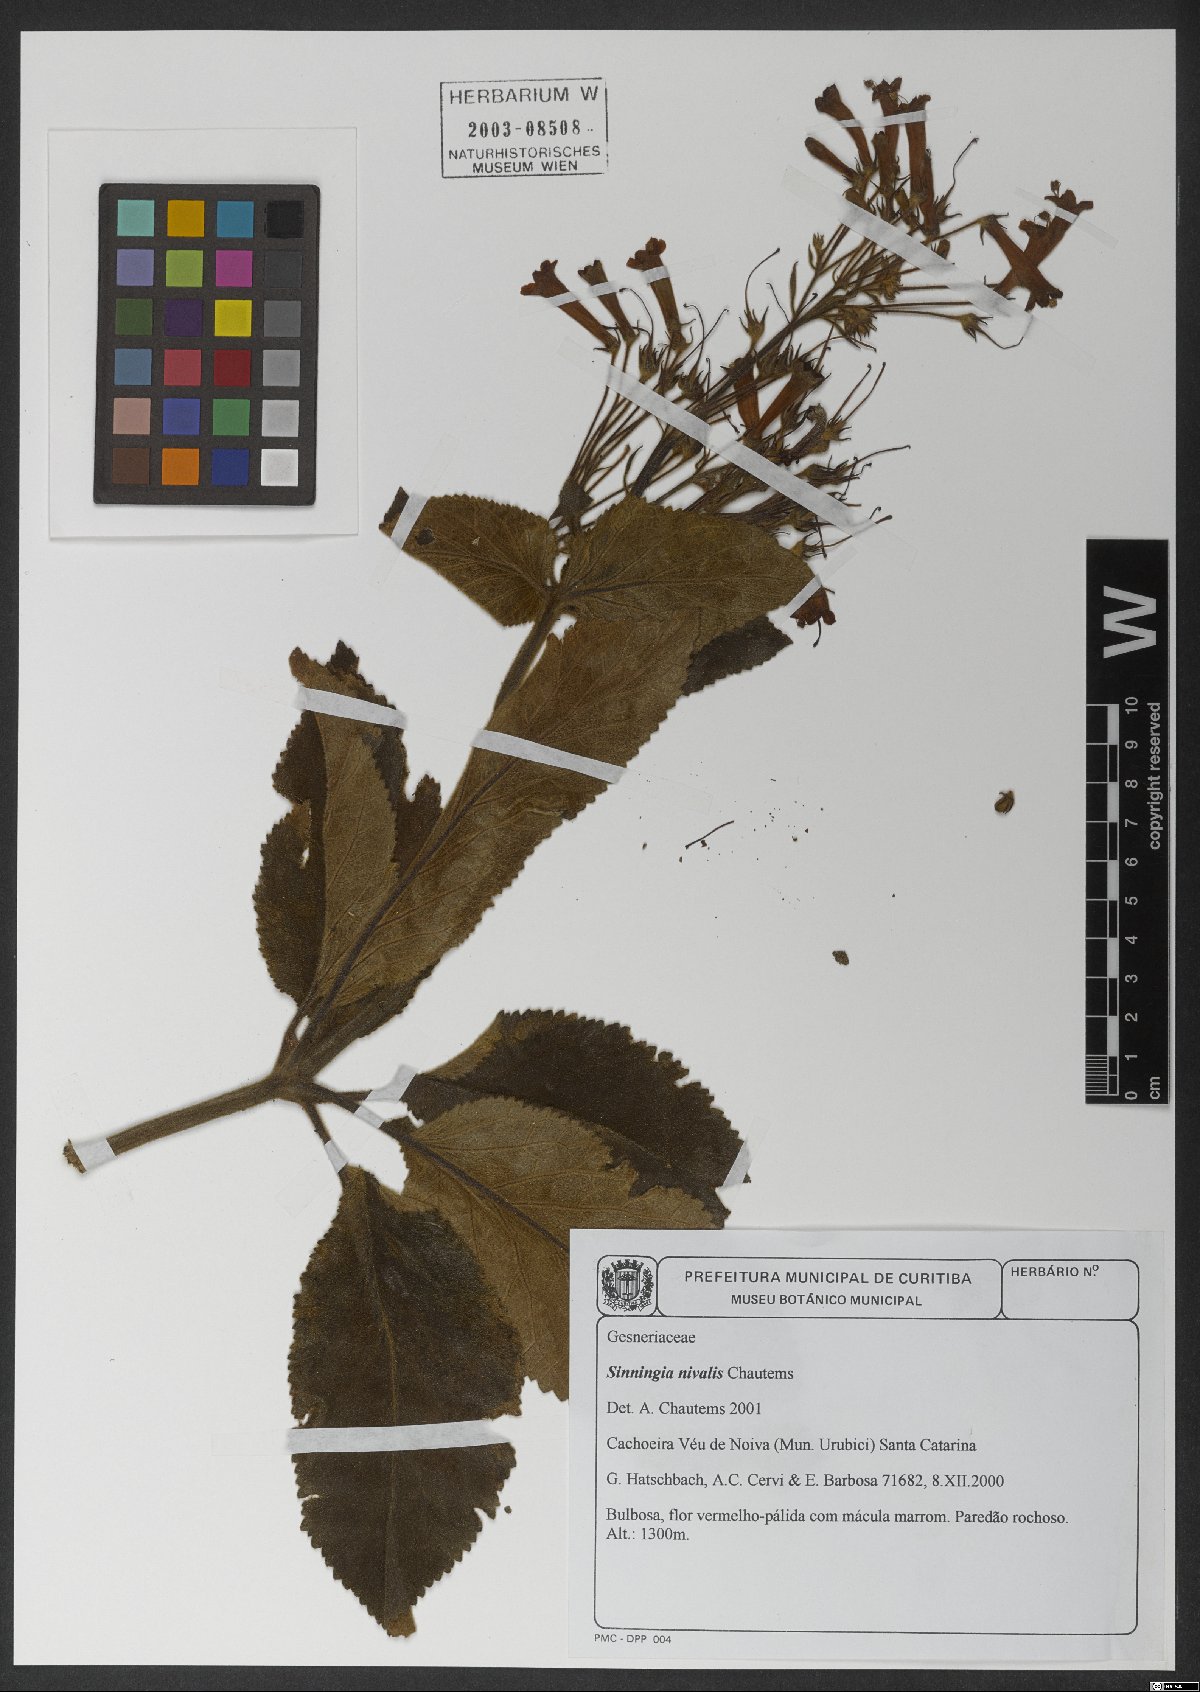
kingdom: Plantae
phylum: Tracheophyta
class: Magnoliopsida
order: Lamiales
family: Gesneriaceae
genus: Sinningia
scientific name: Sinningia nivalis
